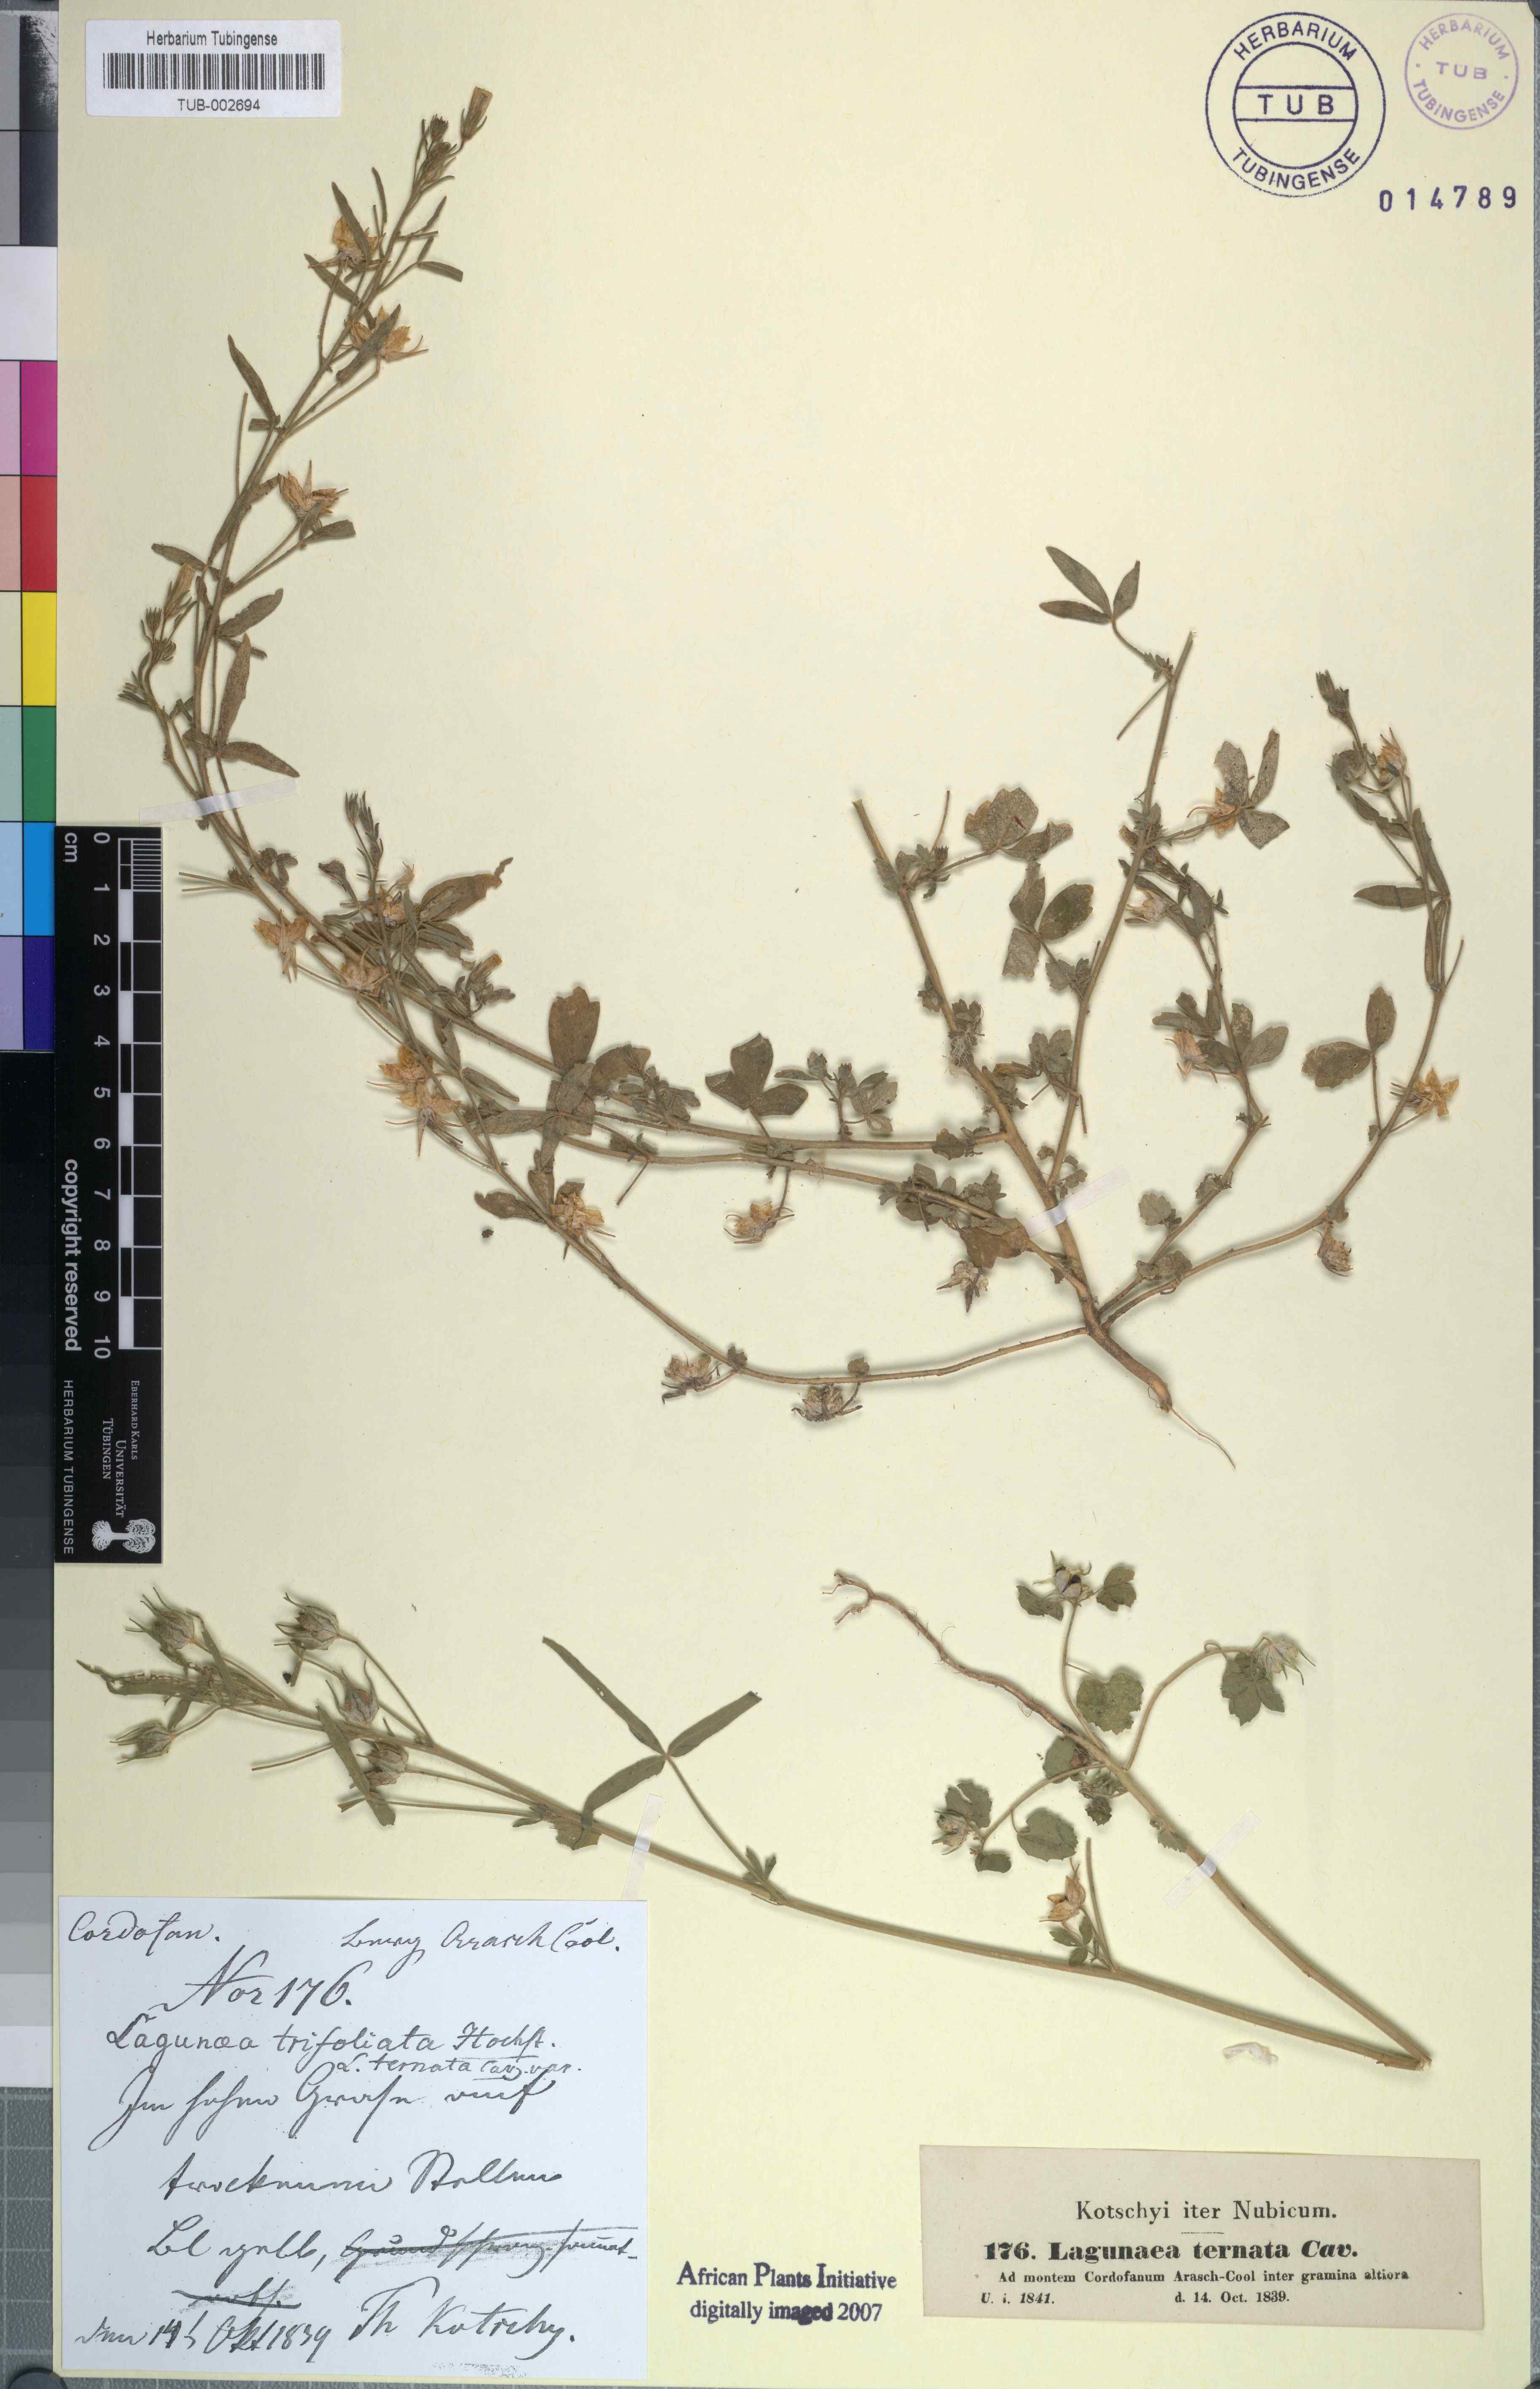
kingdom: Plantae
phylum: Tracheophyta
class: Magnoliopsida
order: Malvales
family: Malvaceae
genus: Hibiscus
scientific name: Hibiscus trionum
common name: Bladder ketmia
